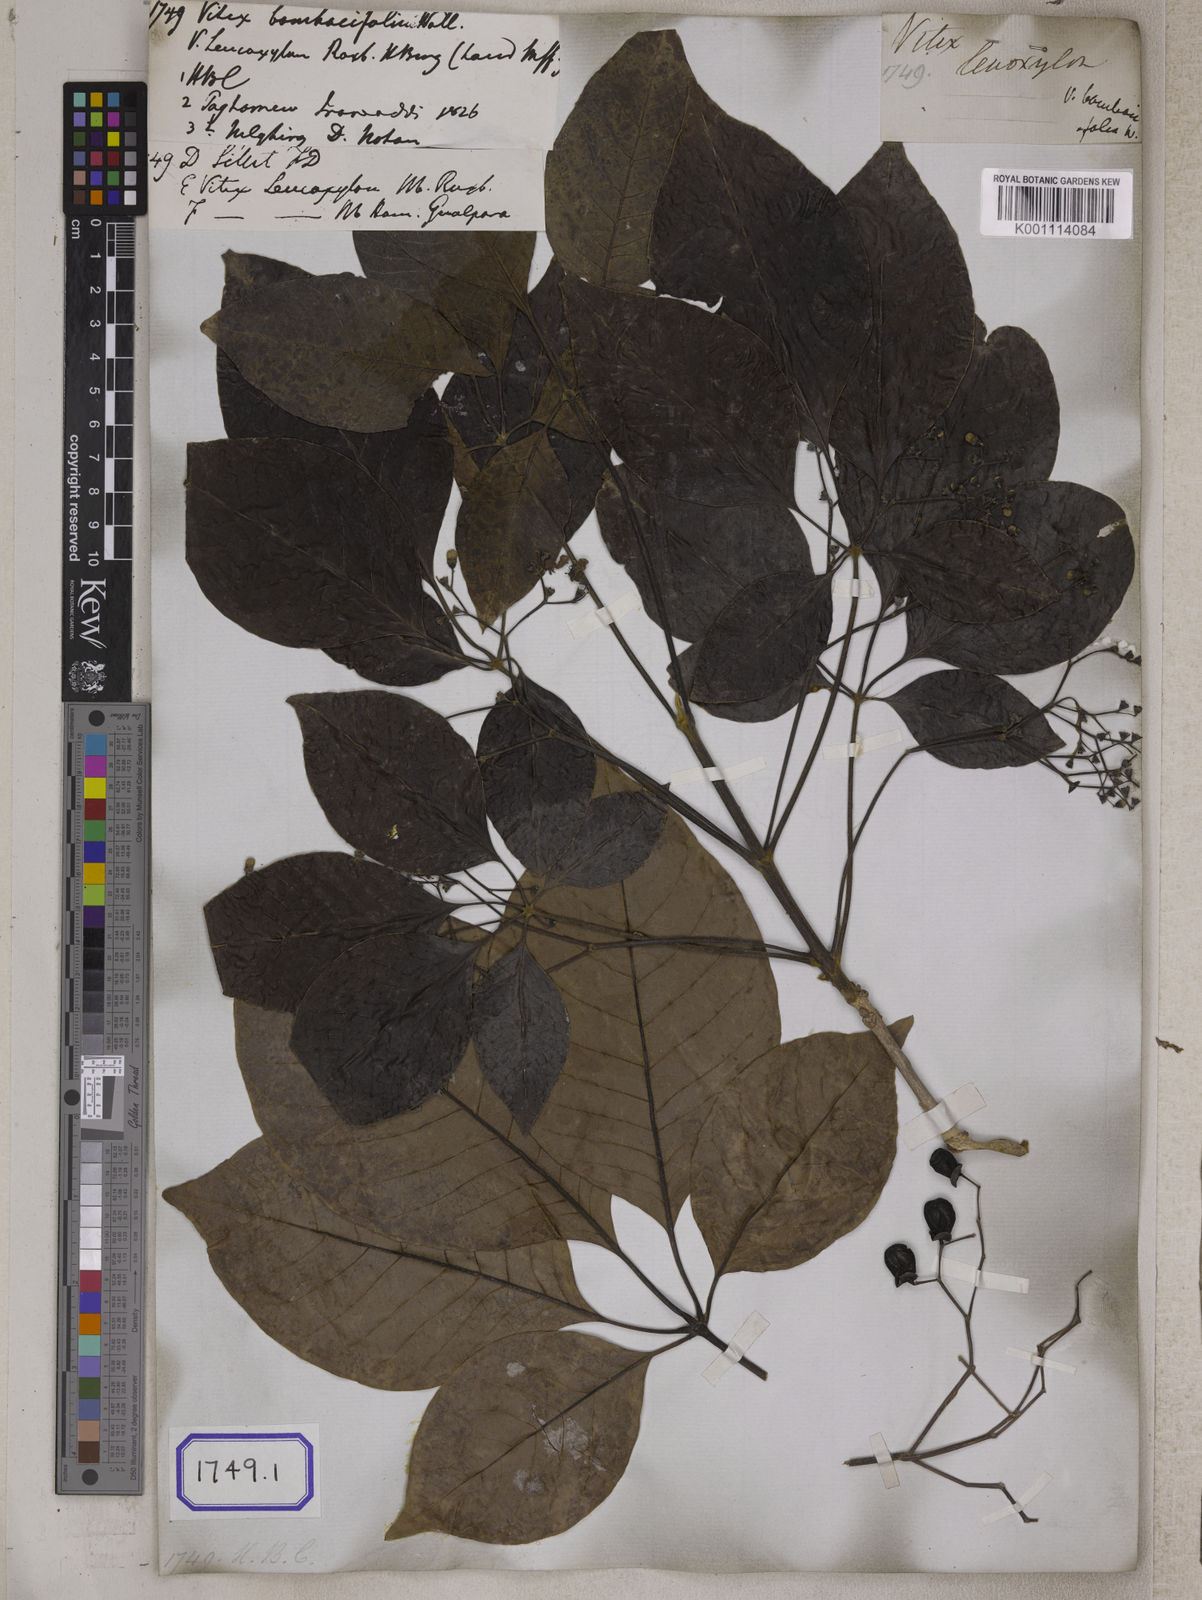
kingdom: Plantae
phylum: Tracheophyta
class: Magnoliopsida
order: Lamiales
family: Lamiaceae
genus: Vitex
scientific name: Vitex
